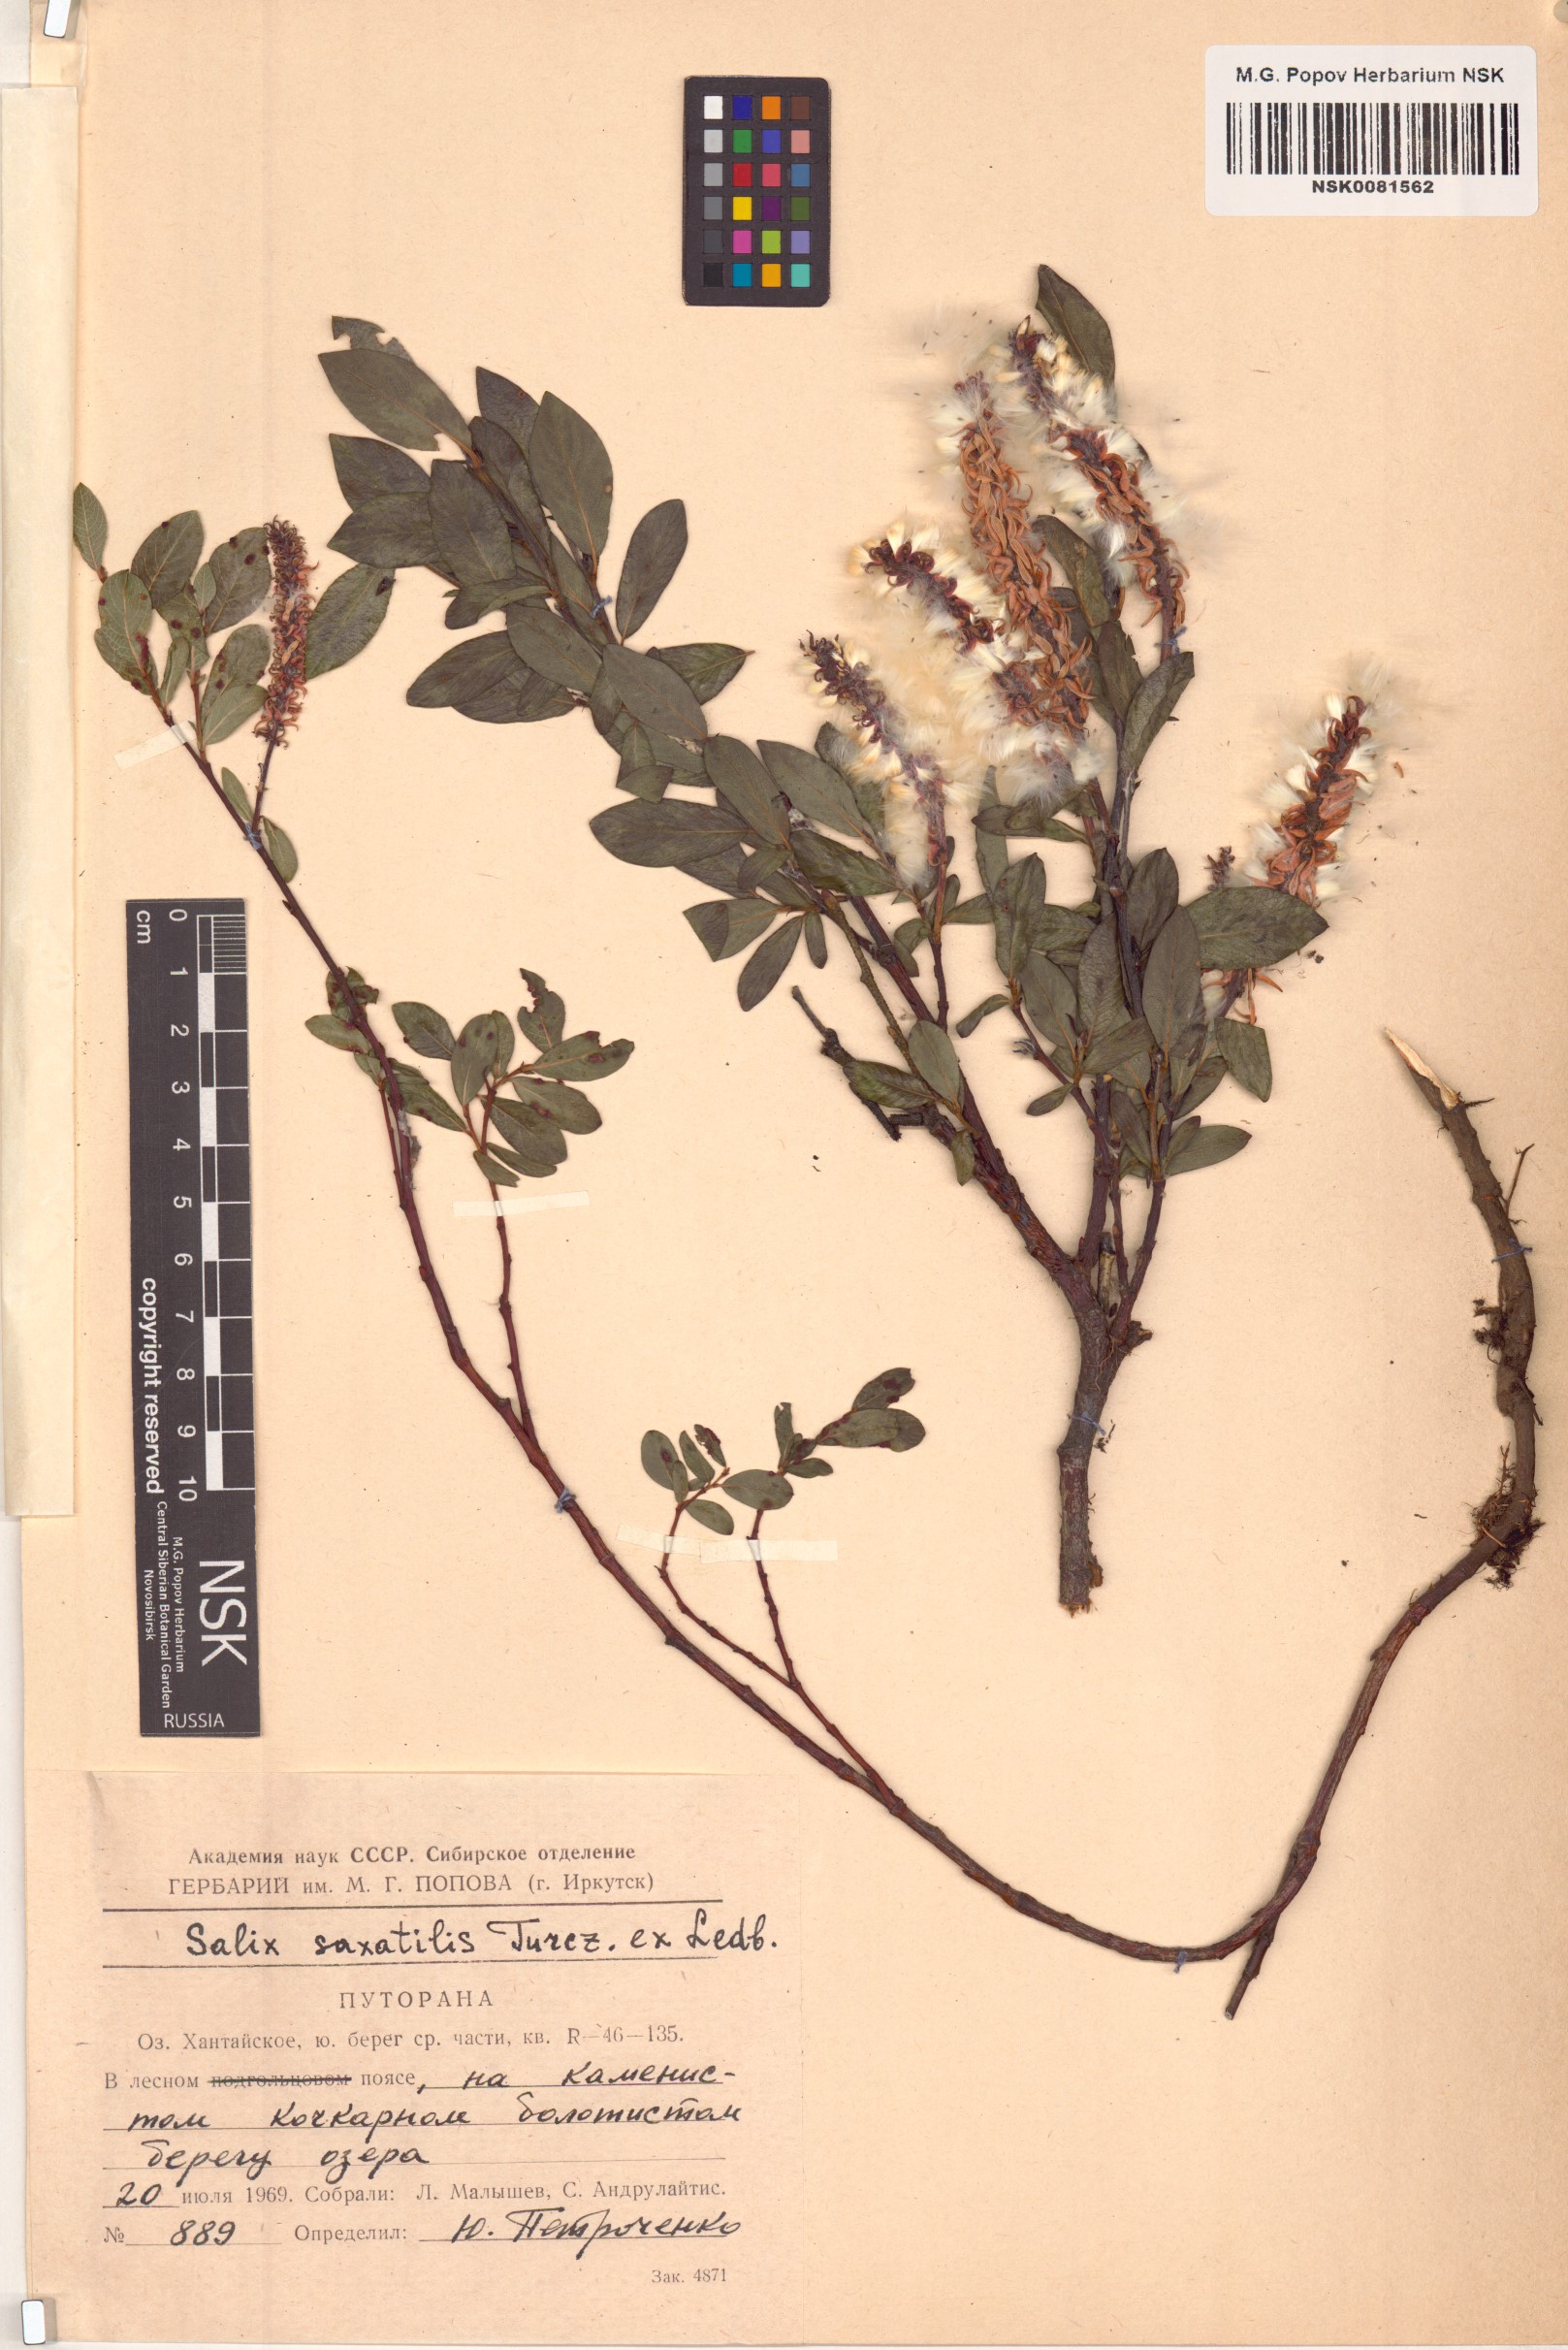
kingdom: Plantae
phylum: Tracheophyta
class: Magnoliopsida
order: Malpighiales
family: Salicaceae
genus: Salix
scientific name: Salix saxatilis
